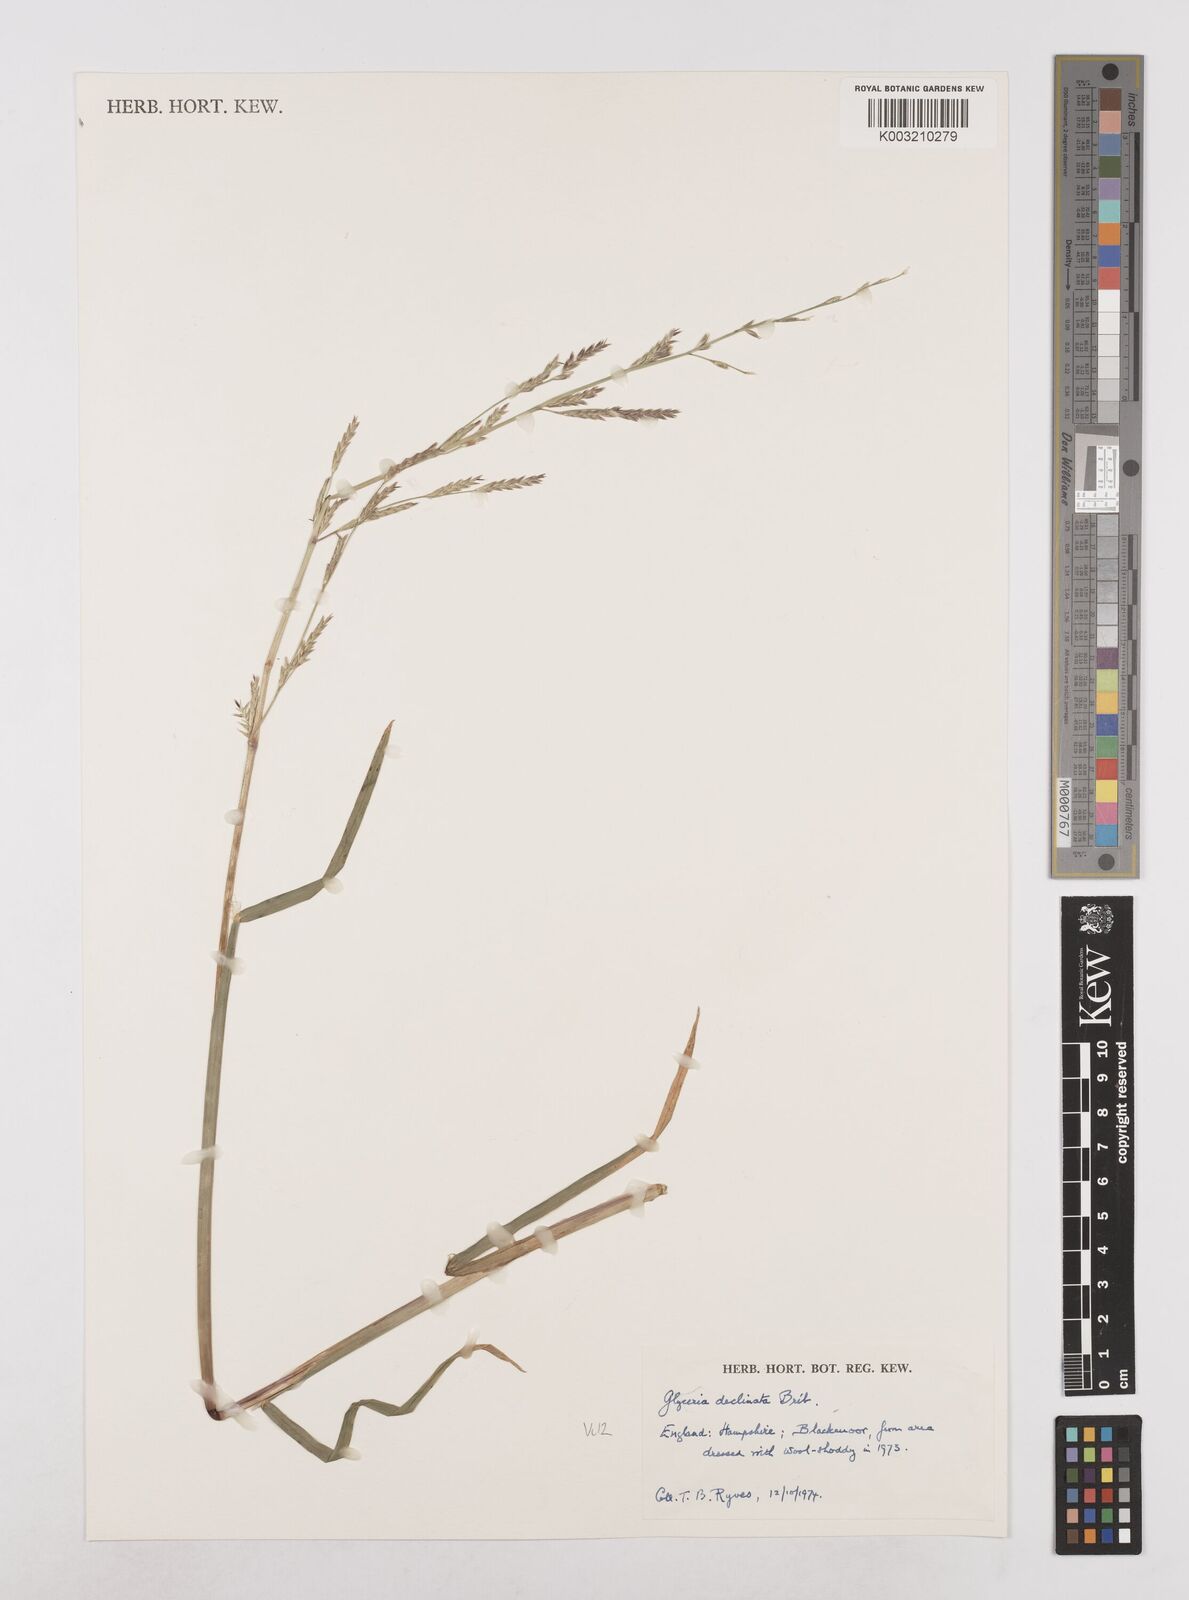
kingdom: Plantae
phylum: Tracheophyta
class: Liliopsida
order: Poales
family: Poaceae
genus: Glyceria
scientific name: Glyceria declinata
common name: Small sweet-grass
